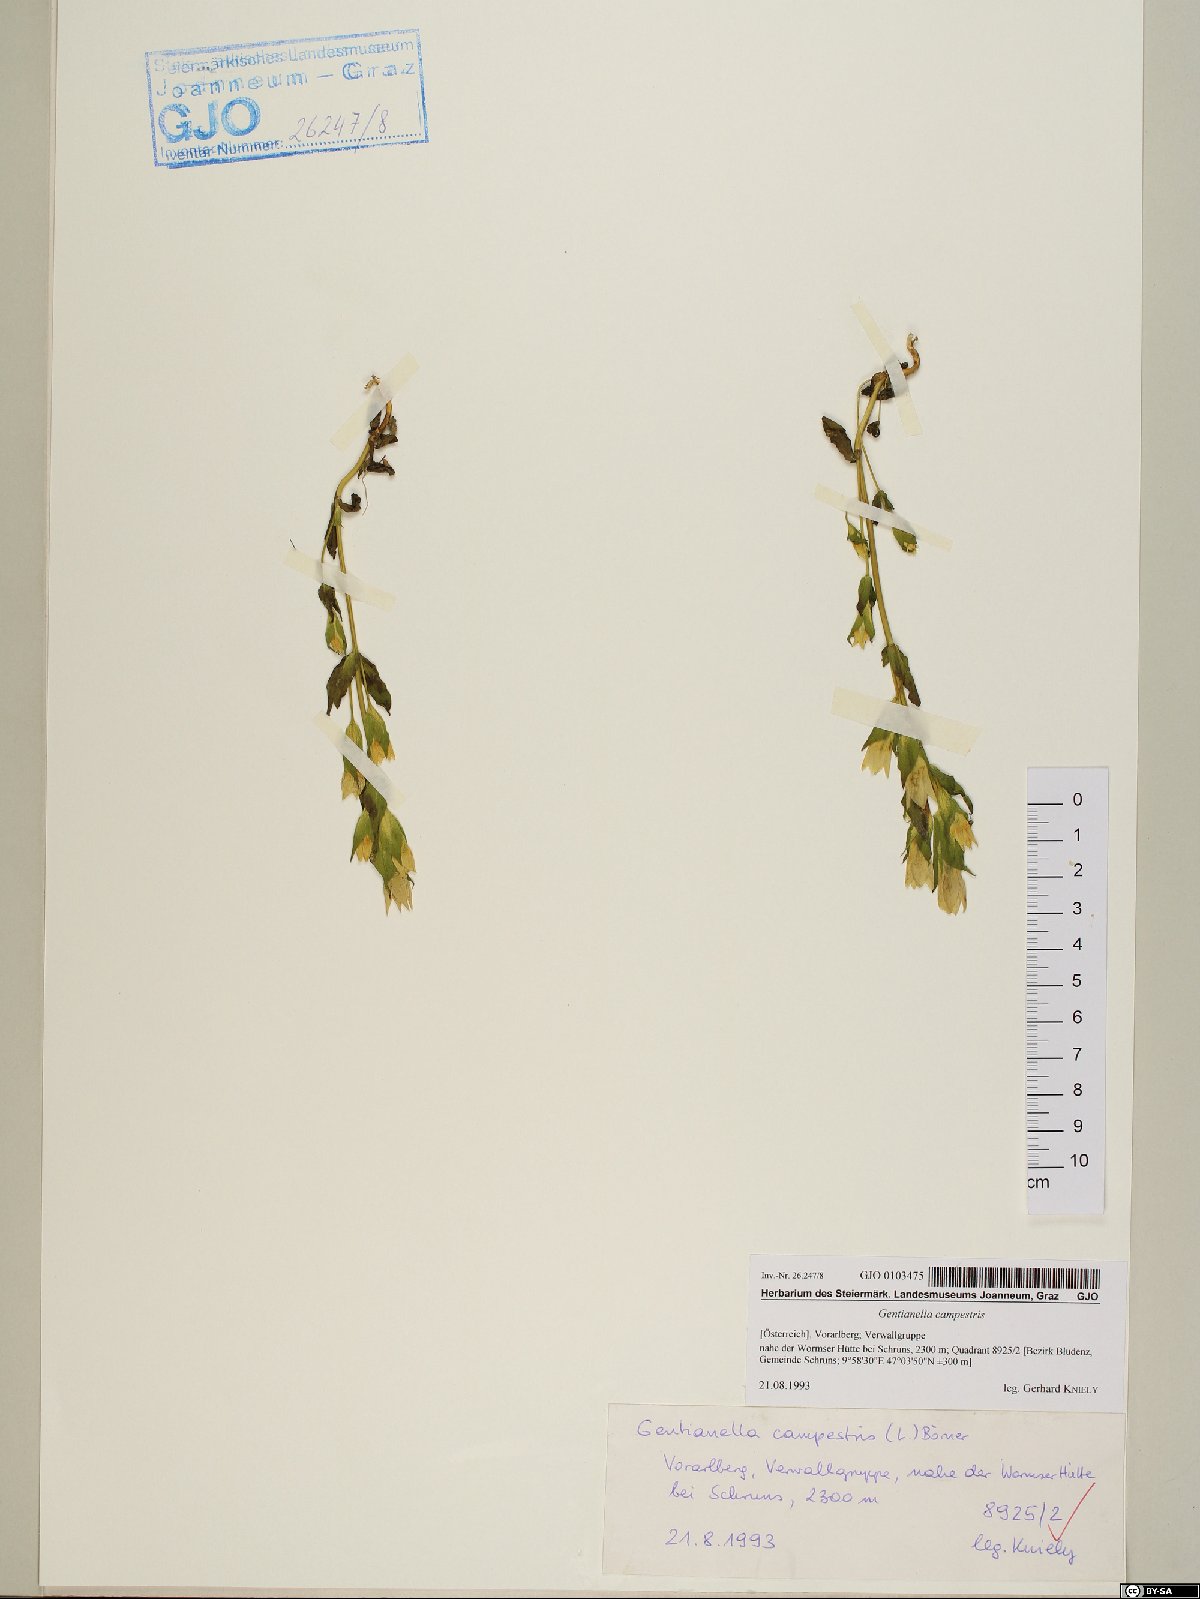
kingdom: Plantae
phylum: Tracheophyta
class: Magnoliopsida
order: Gentianales
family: Gentianaceae
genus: Gentianella
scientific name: Gentianella campestris
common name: Field gentian
